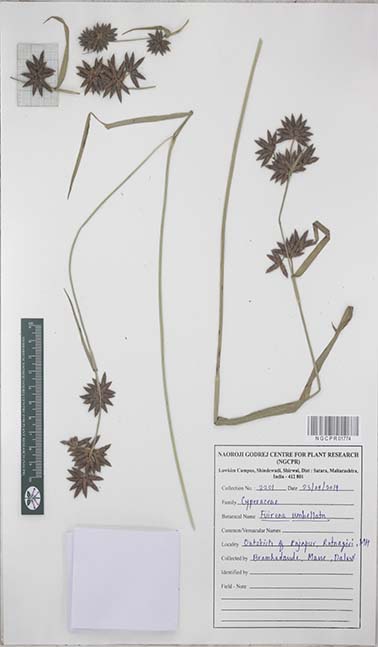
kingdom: Plantae
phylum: Tracheophyta
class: Liliopsida
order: Poales
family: Cyperaceae
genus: Fuirena
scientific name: Fuirena umbellata
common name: Yefen
